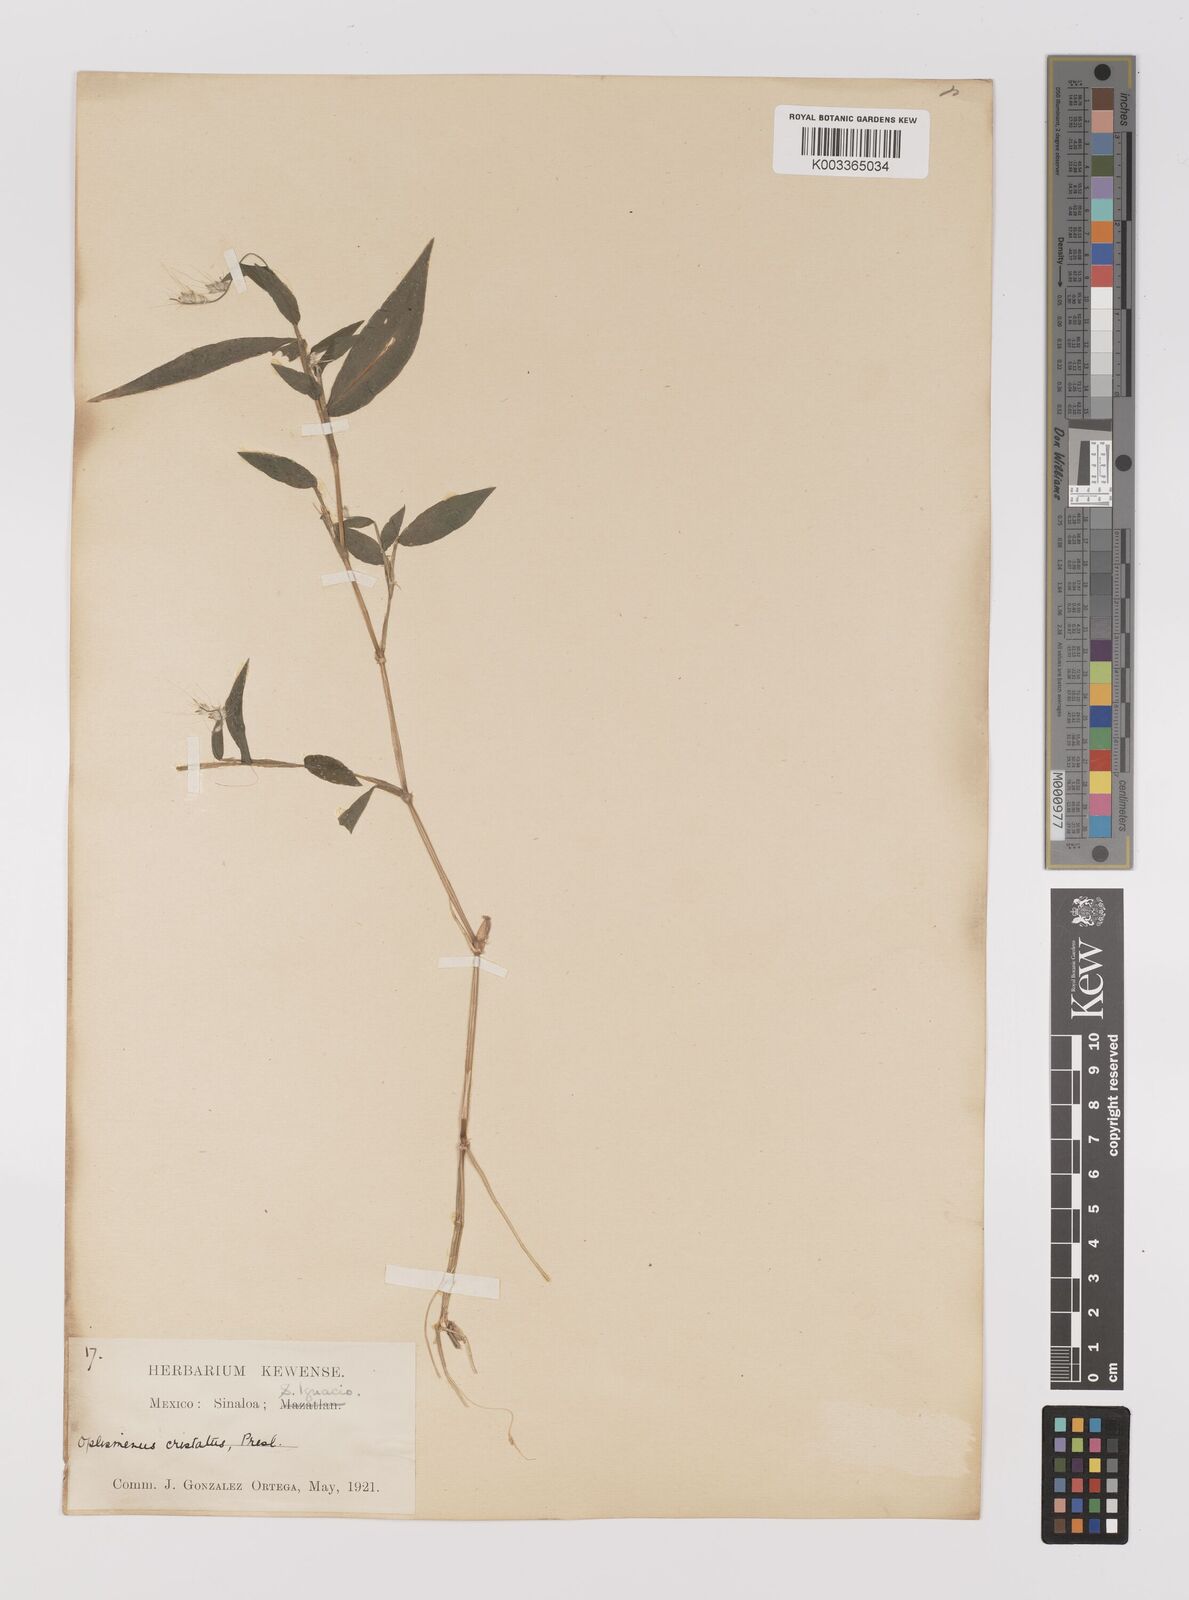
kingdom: Plantae
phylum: Tracheophyta
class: Liliopsida
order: Poales
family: Poaceae
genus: Oplismenus
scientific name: Oplismenus burmanni
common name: Burmann's basketgrass
